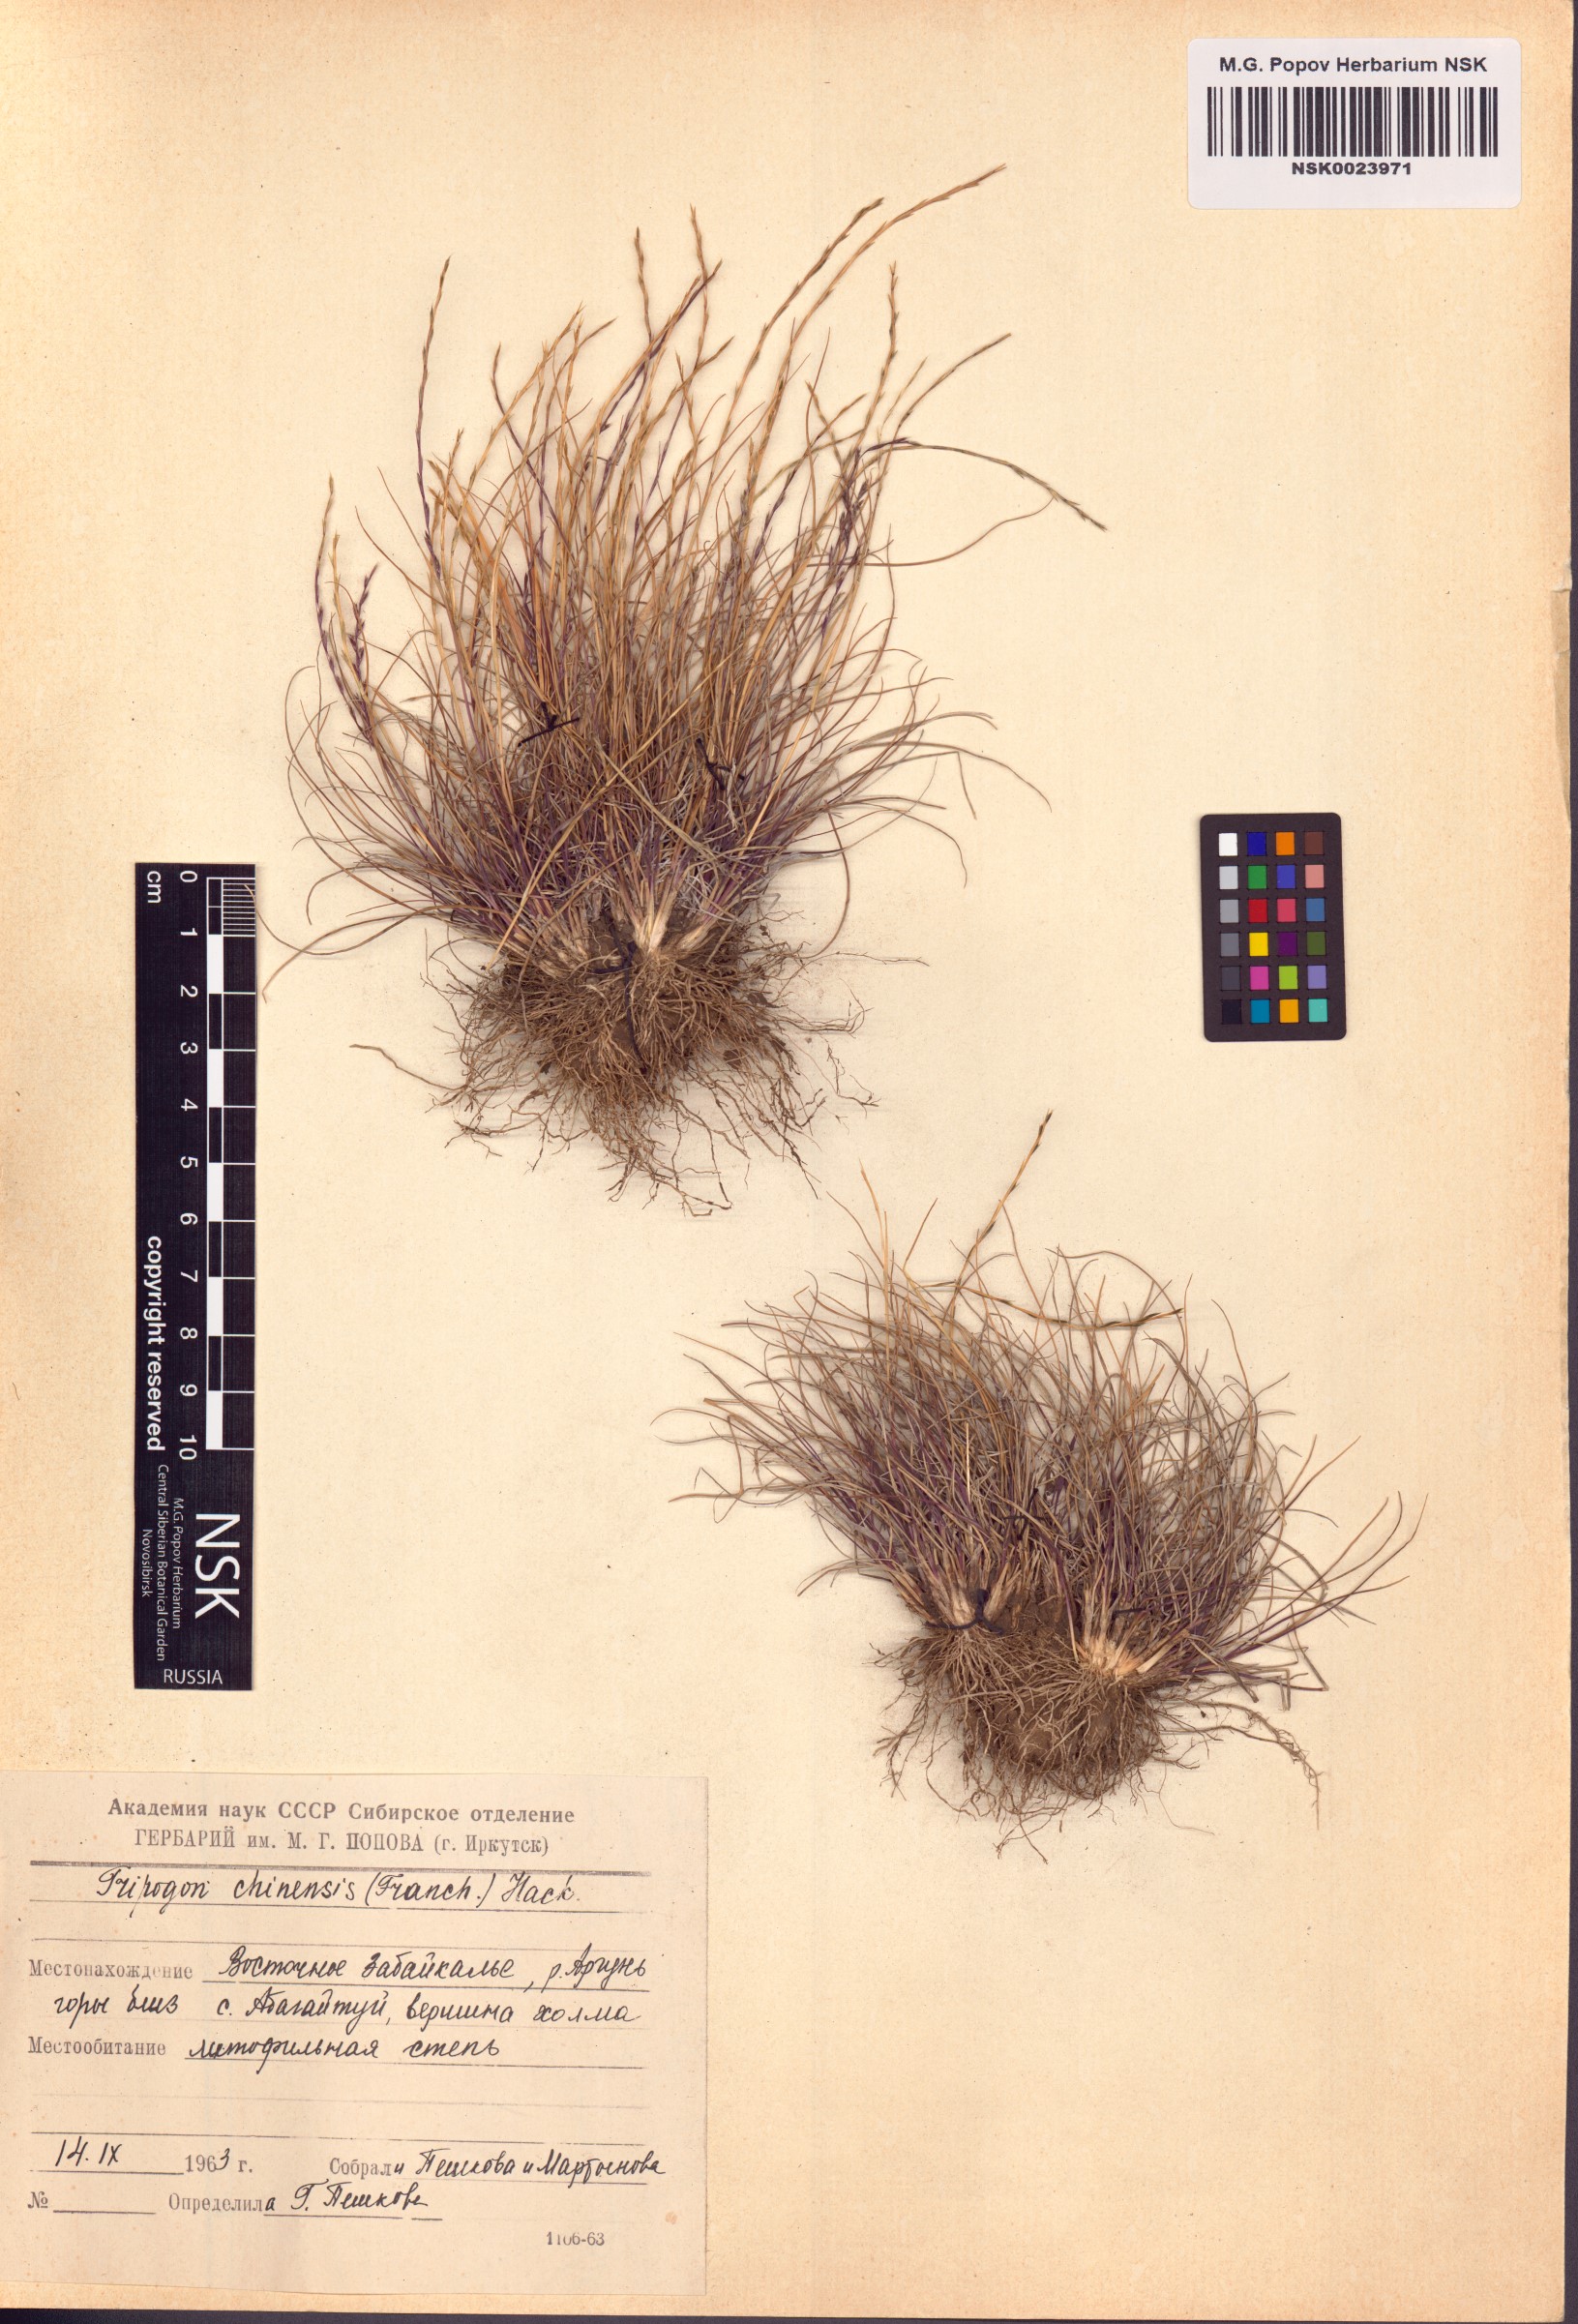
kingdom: Plantae
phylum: Tracheophyta
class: Liliopsida
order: Poales
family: Poaceae
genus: Tripogon
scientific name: Tripogon chinensis
